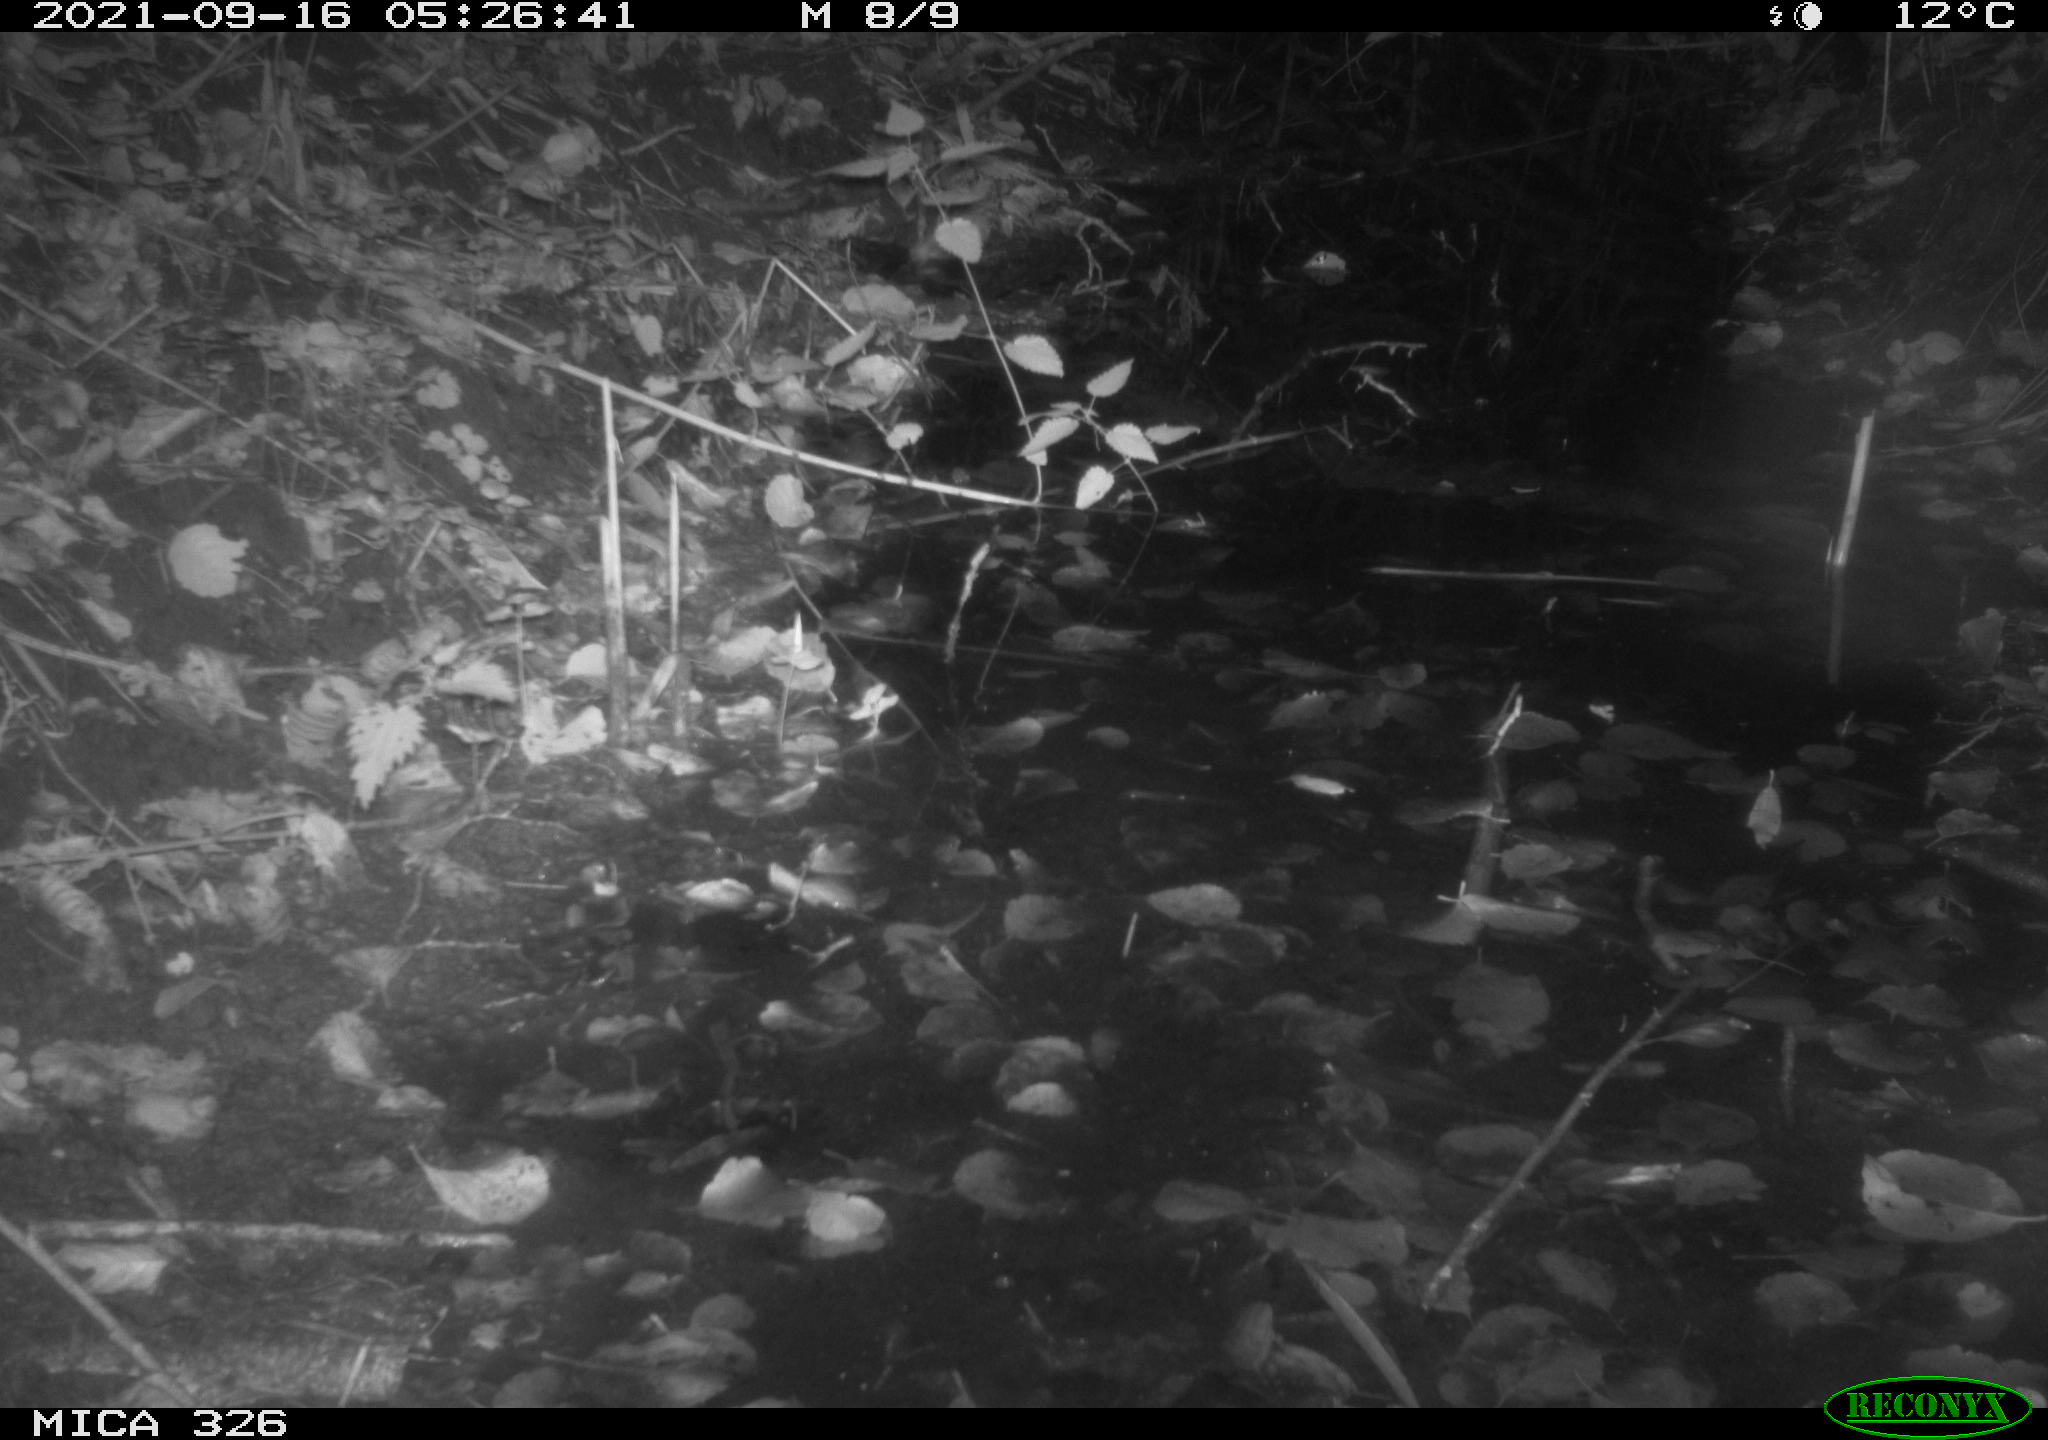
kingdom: Animalia
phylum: Chordata
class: Mammalia
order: Rodentia
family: Myocastoridae
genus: Myocastor
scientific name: Myocastor coypus
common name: Coypu
